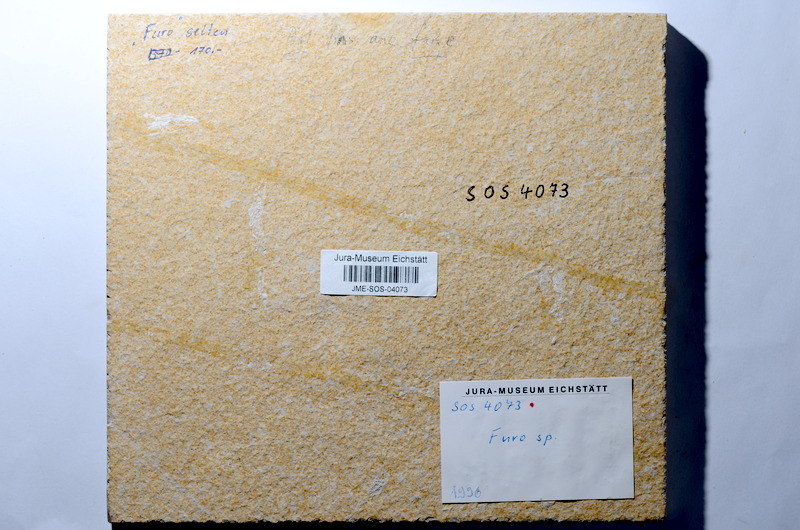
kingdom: Animalia
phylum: Chordata
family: Ophiopsiellidae
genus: Furo
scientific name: Furo
